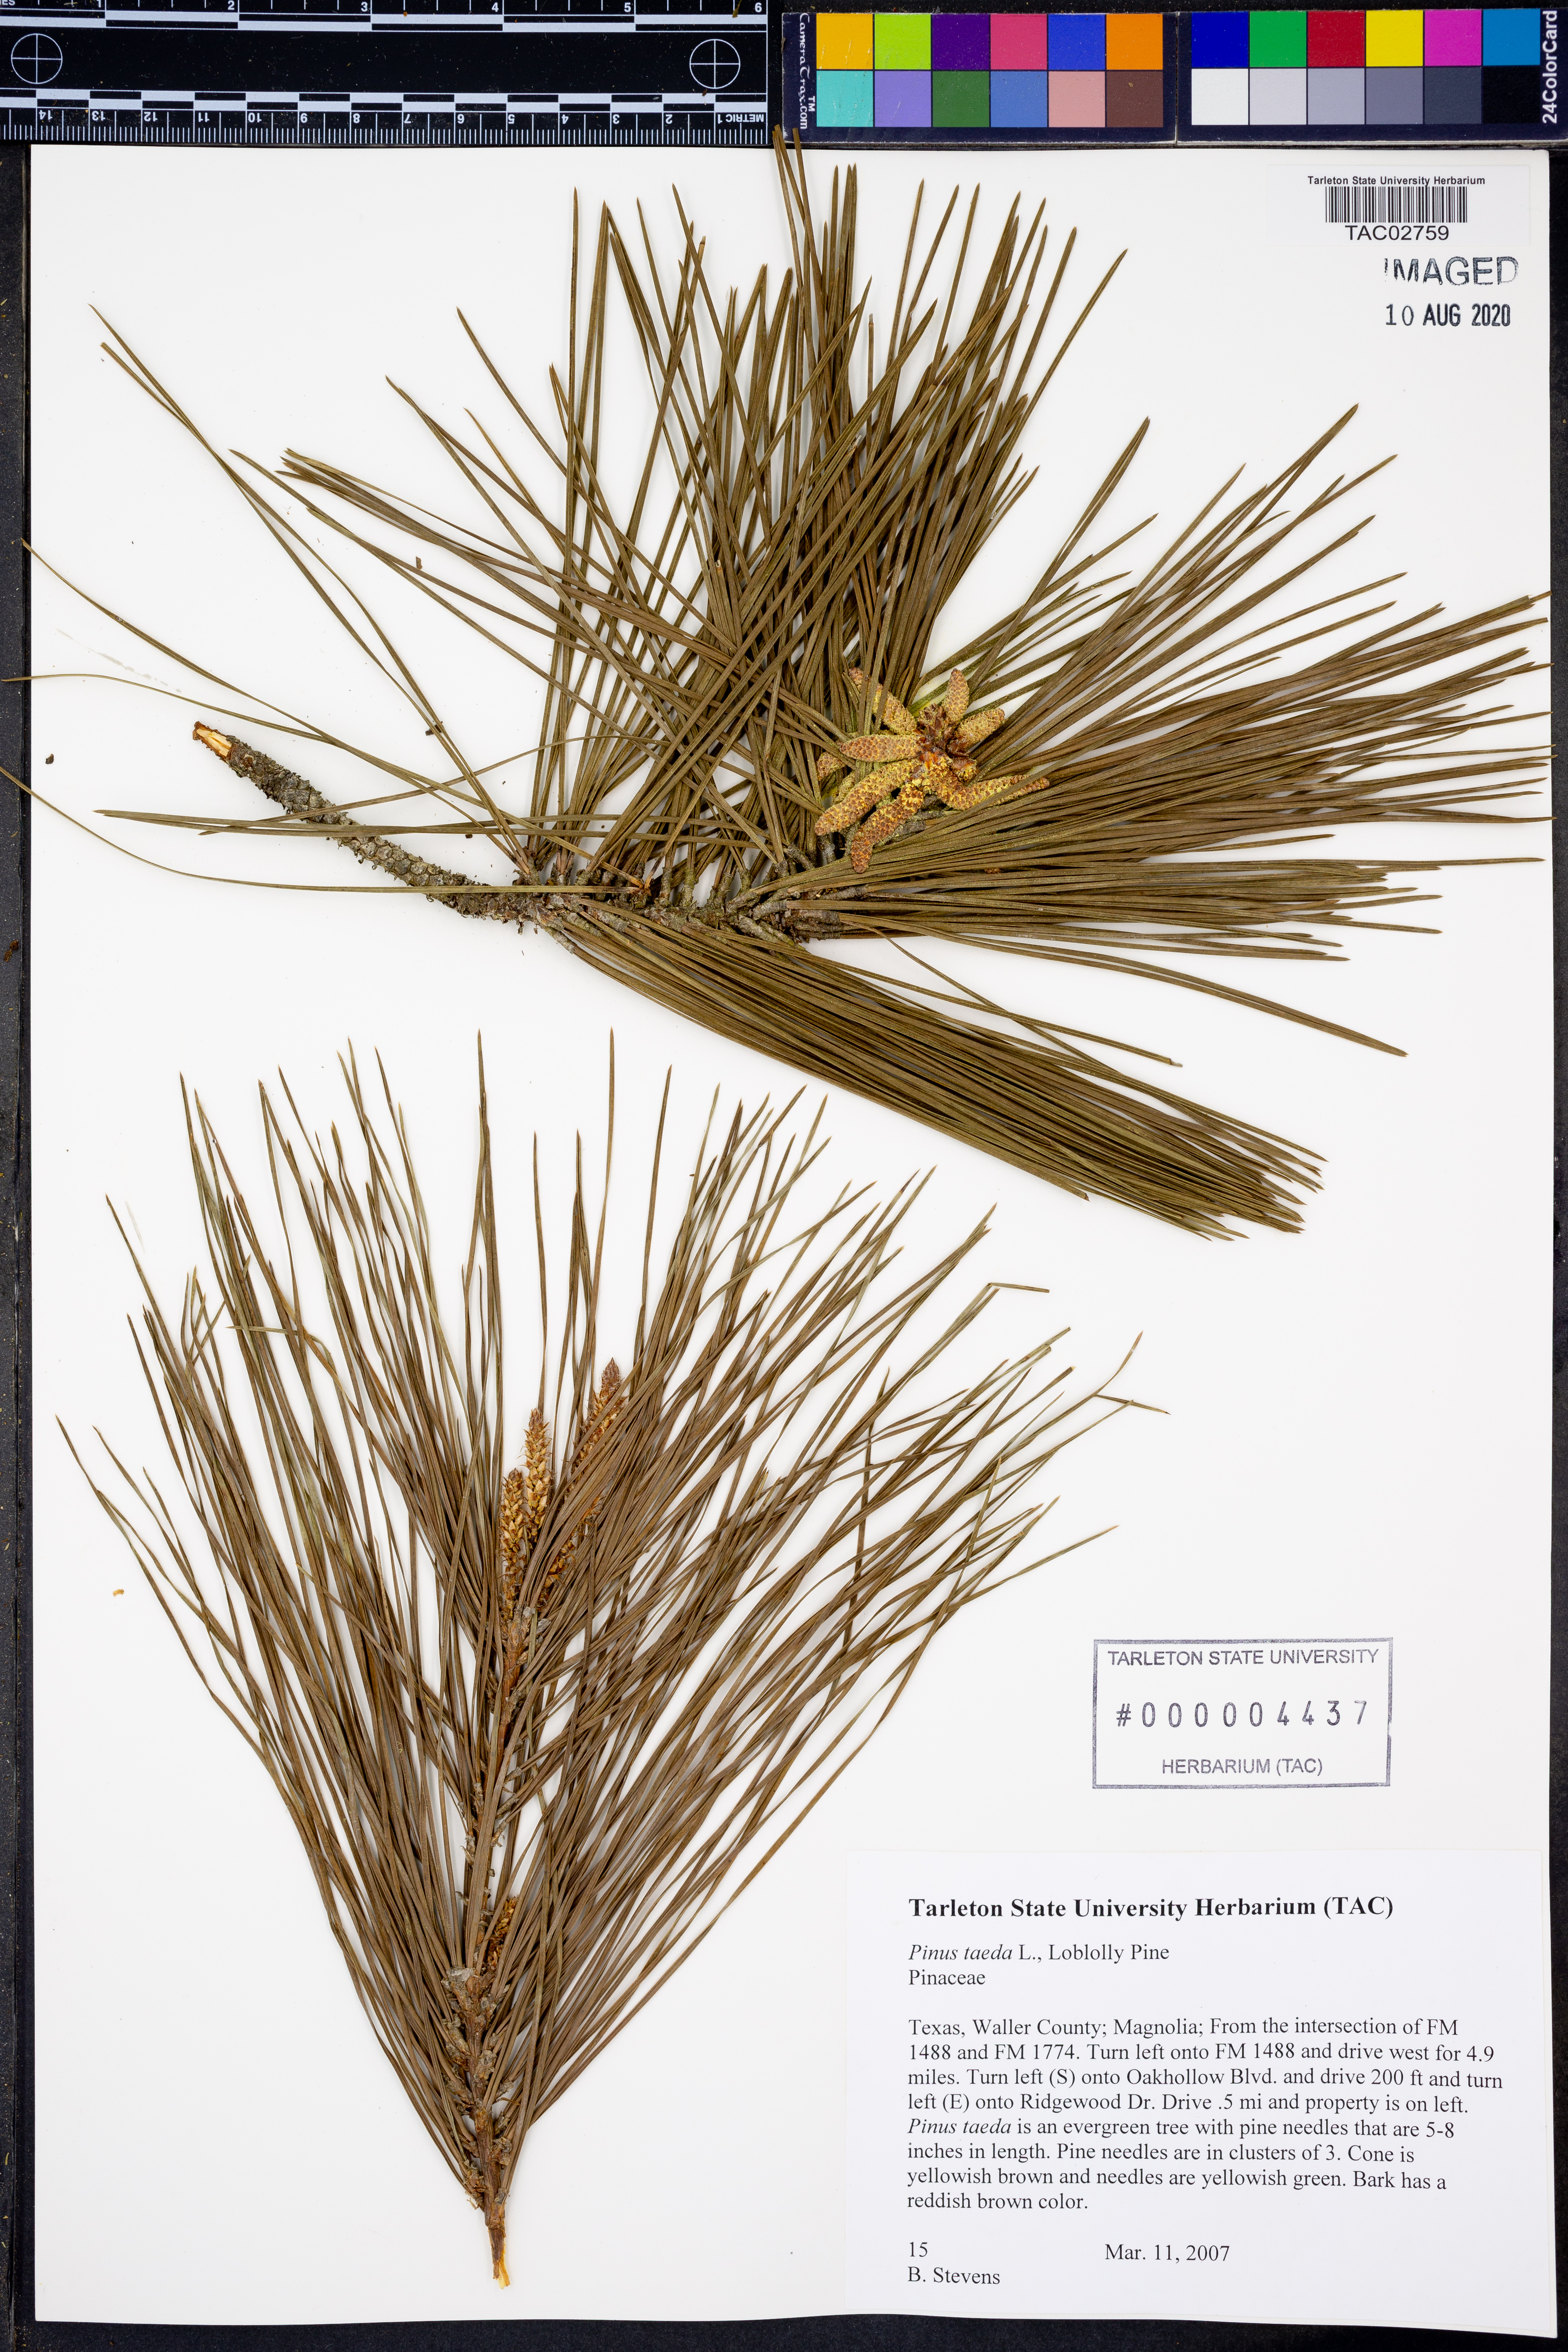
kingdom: Plantae
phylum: Tracheophyta
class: Pinopsida
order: Pinales
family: Pinaceae
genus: Pinus
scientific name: Pinus taeda
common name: Loblolly pine
